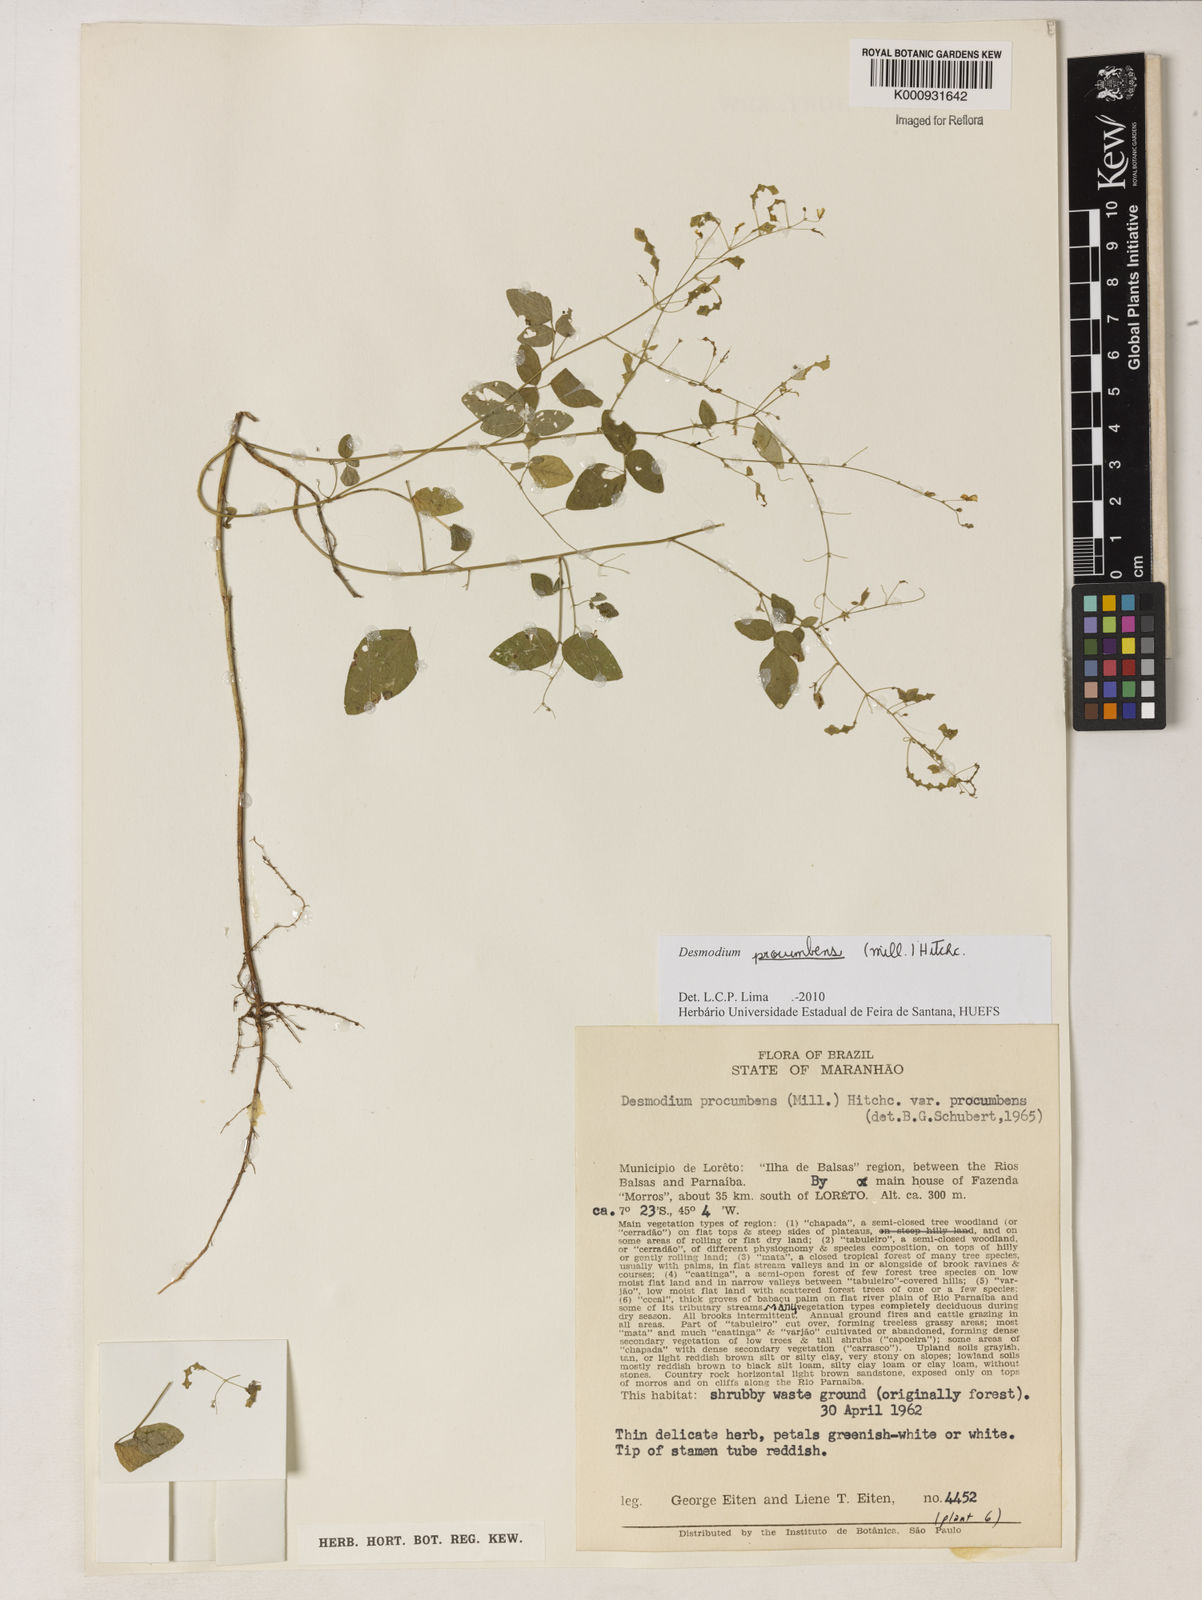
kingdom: Plantae
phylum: Tracheophyta
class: Magnoliopsida
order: Fabales
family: Fabaceae
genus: Desmodium
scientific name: Desmodium
